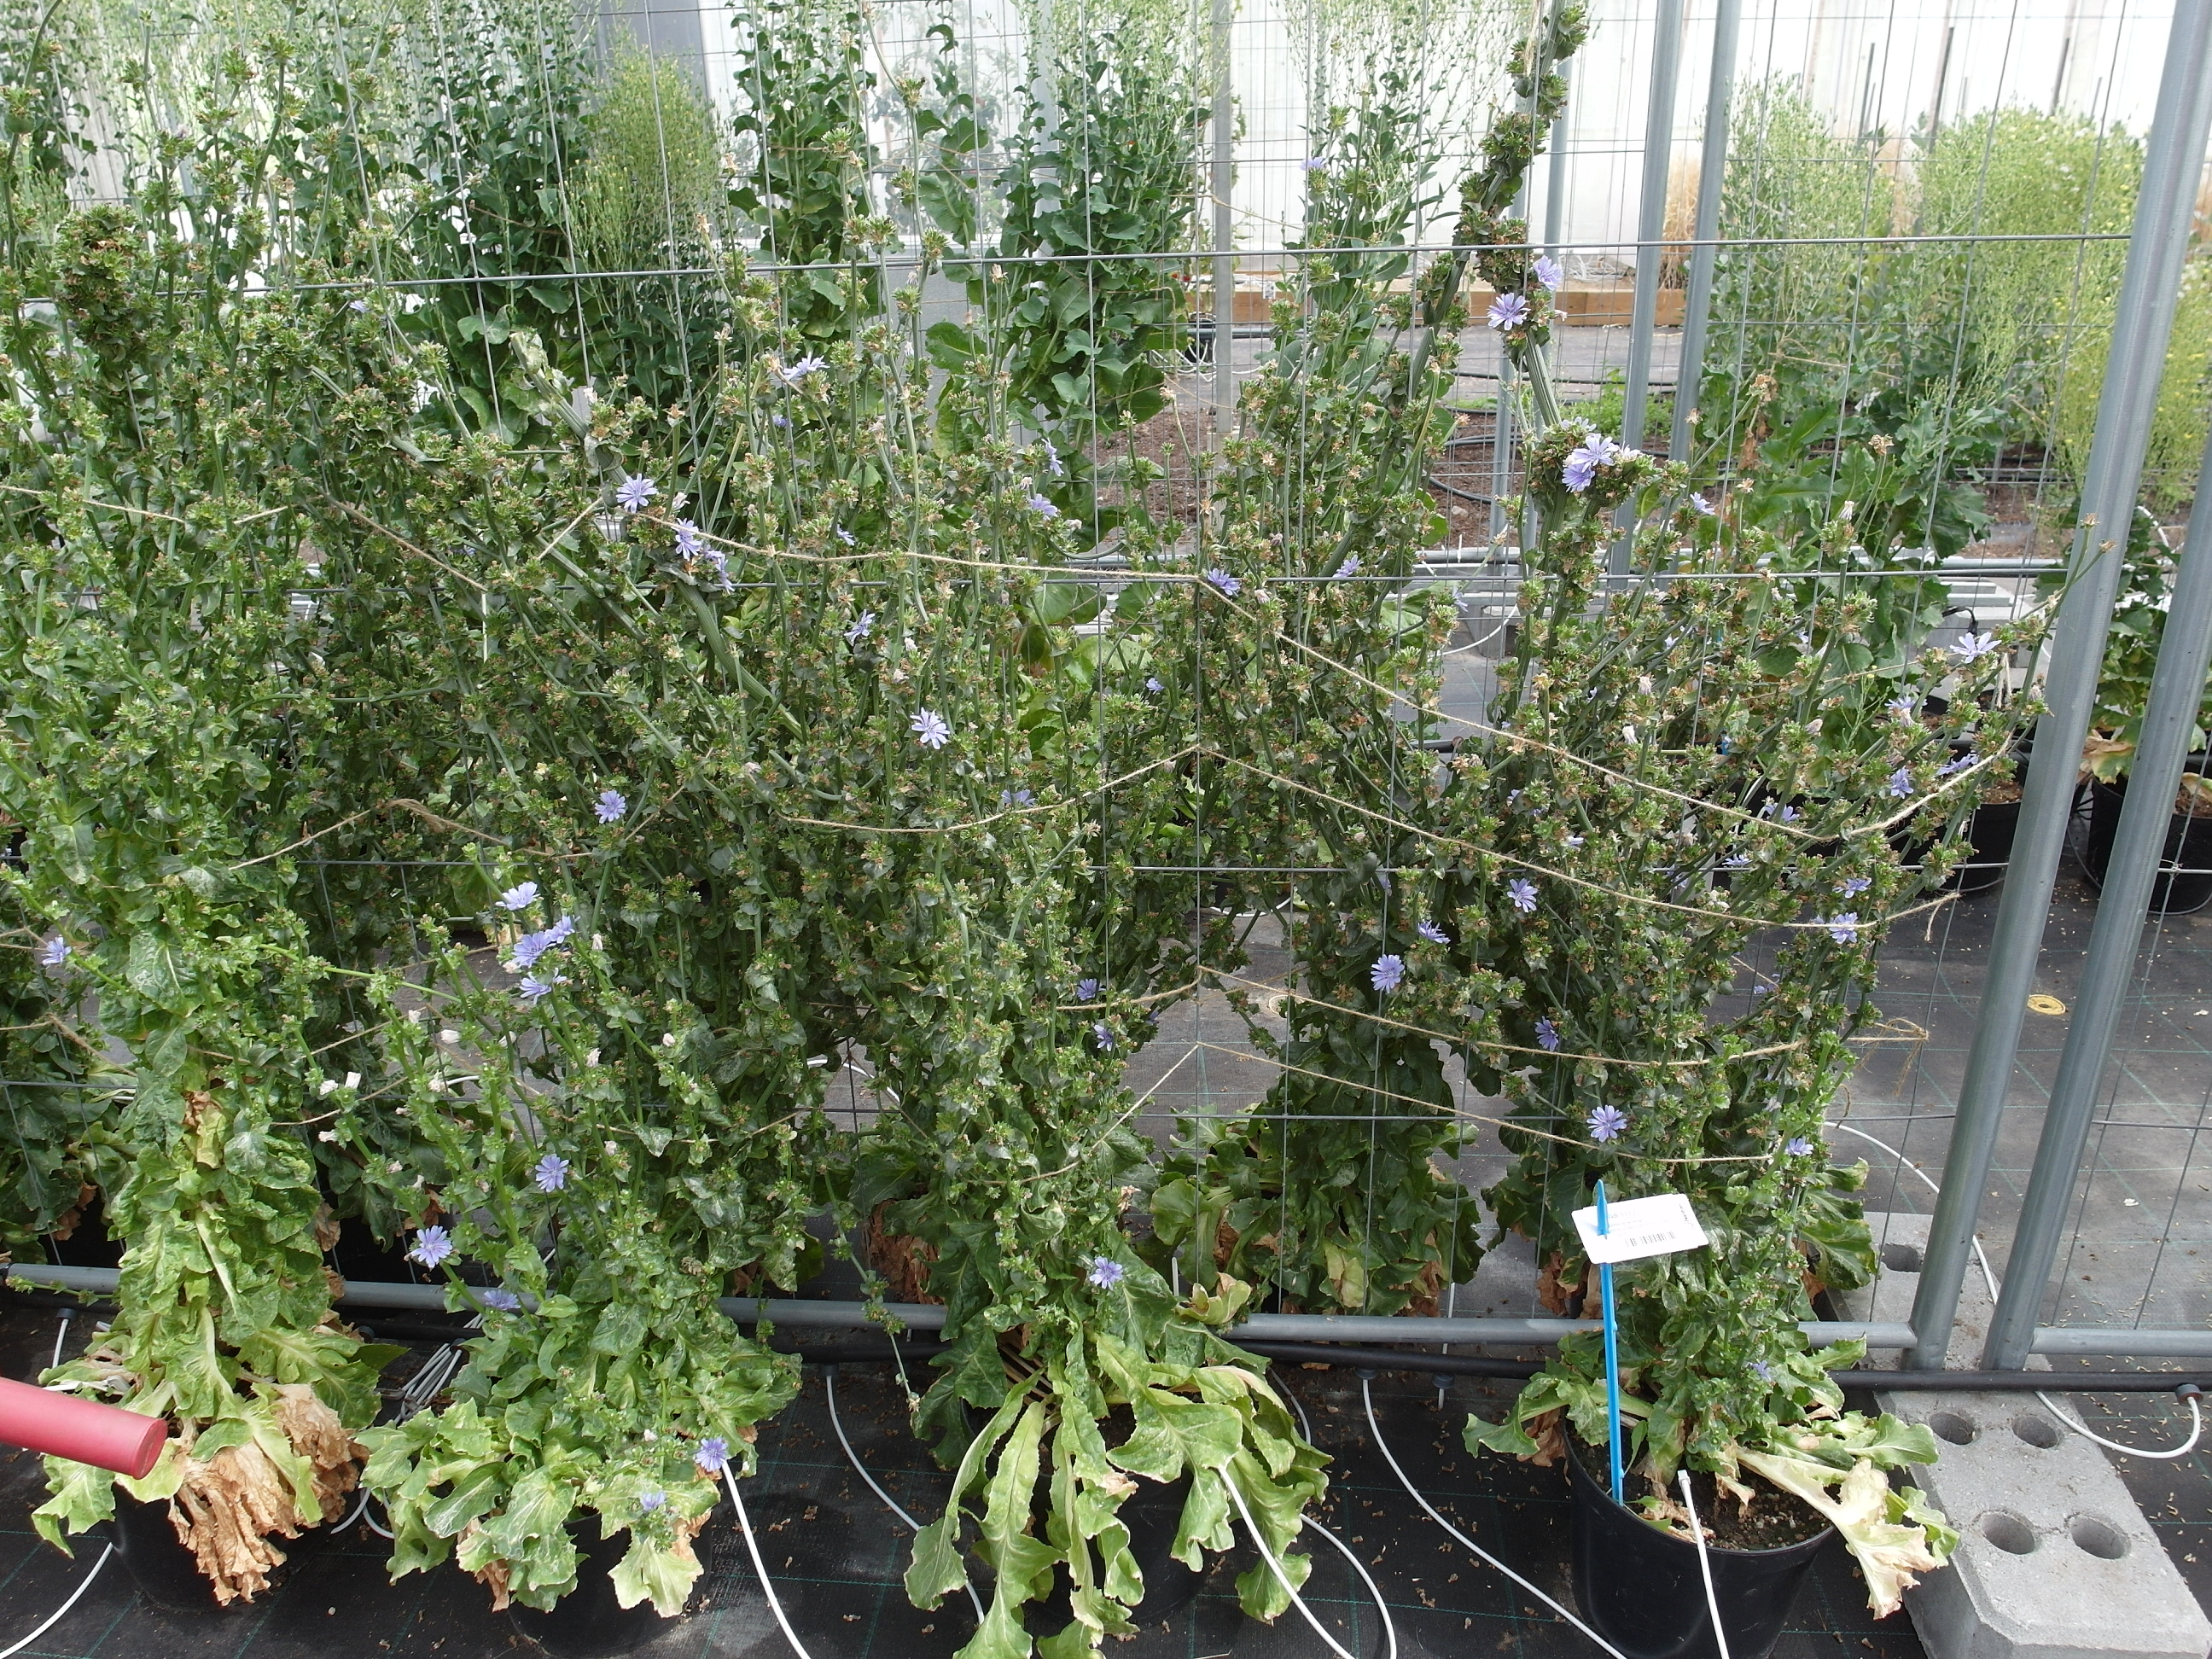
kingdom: Plantae
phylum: Tracheophyta
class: Magnoliopsida
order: Asterales
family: Asteraceae
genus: Cichorium
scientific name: Cichorium endivia
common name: Endive
